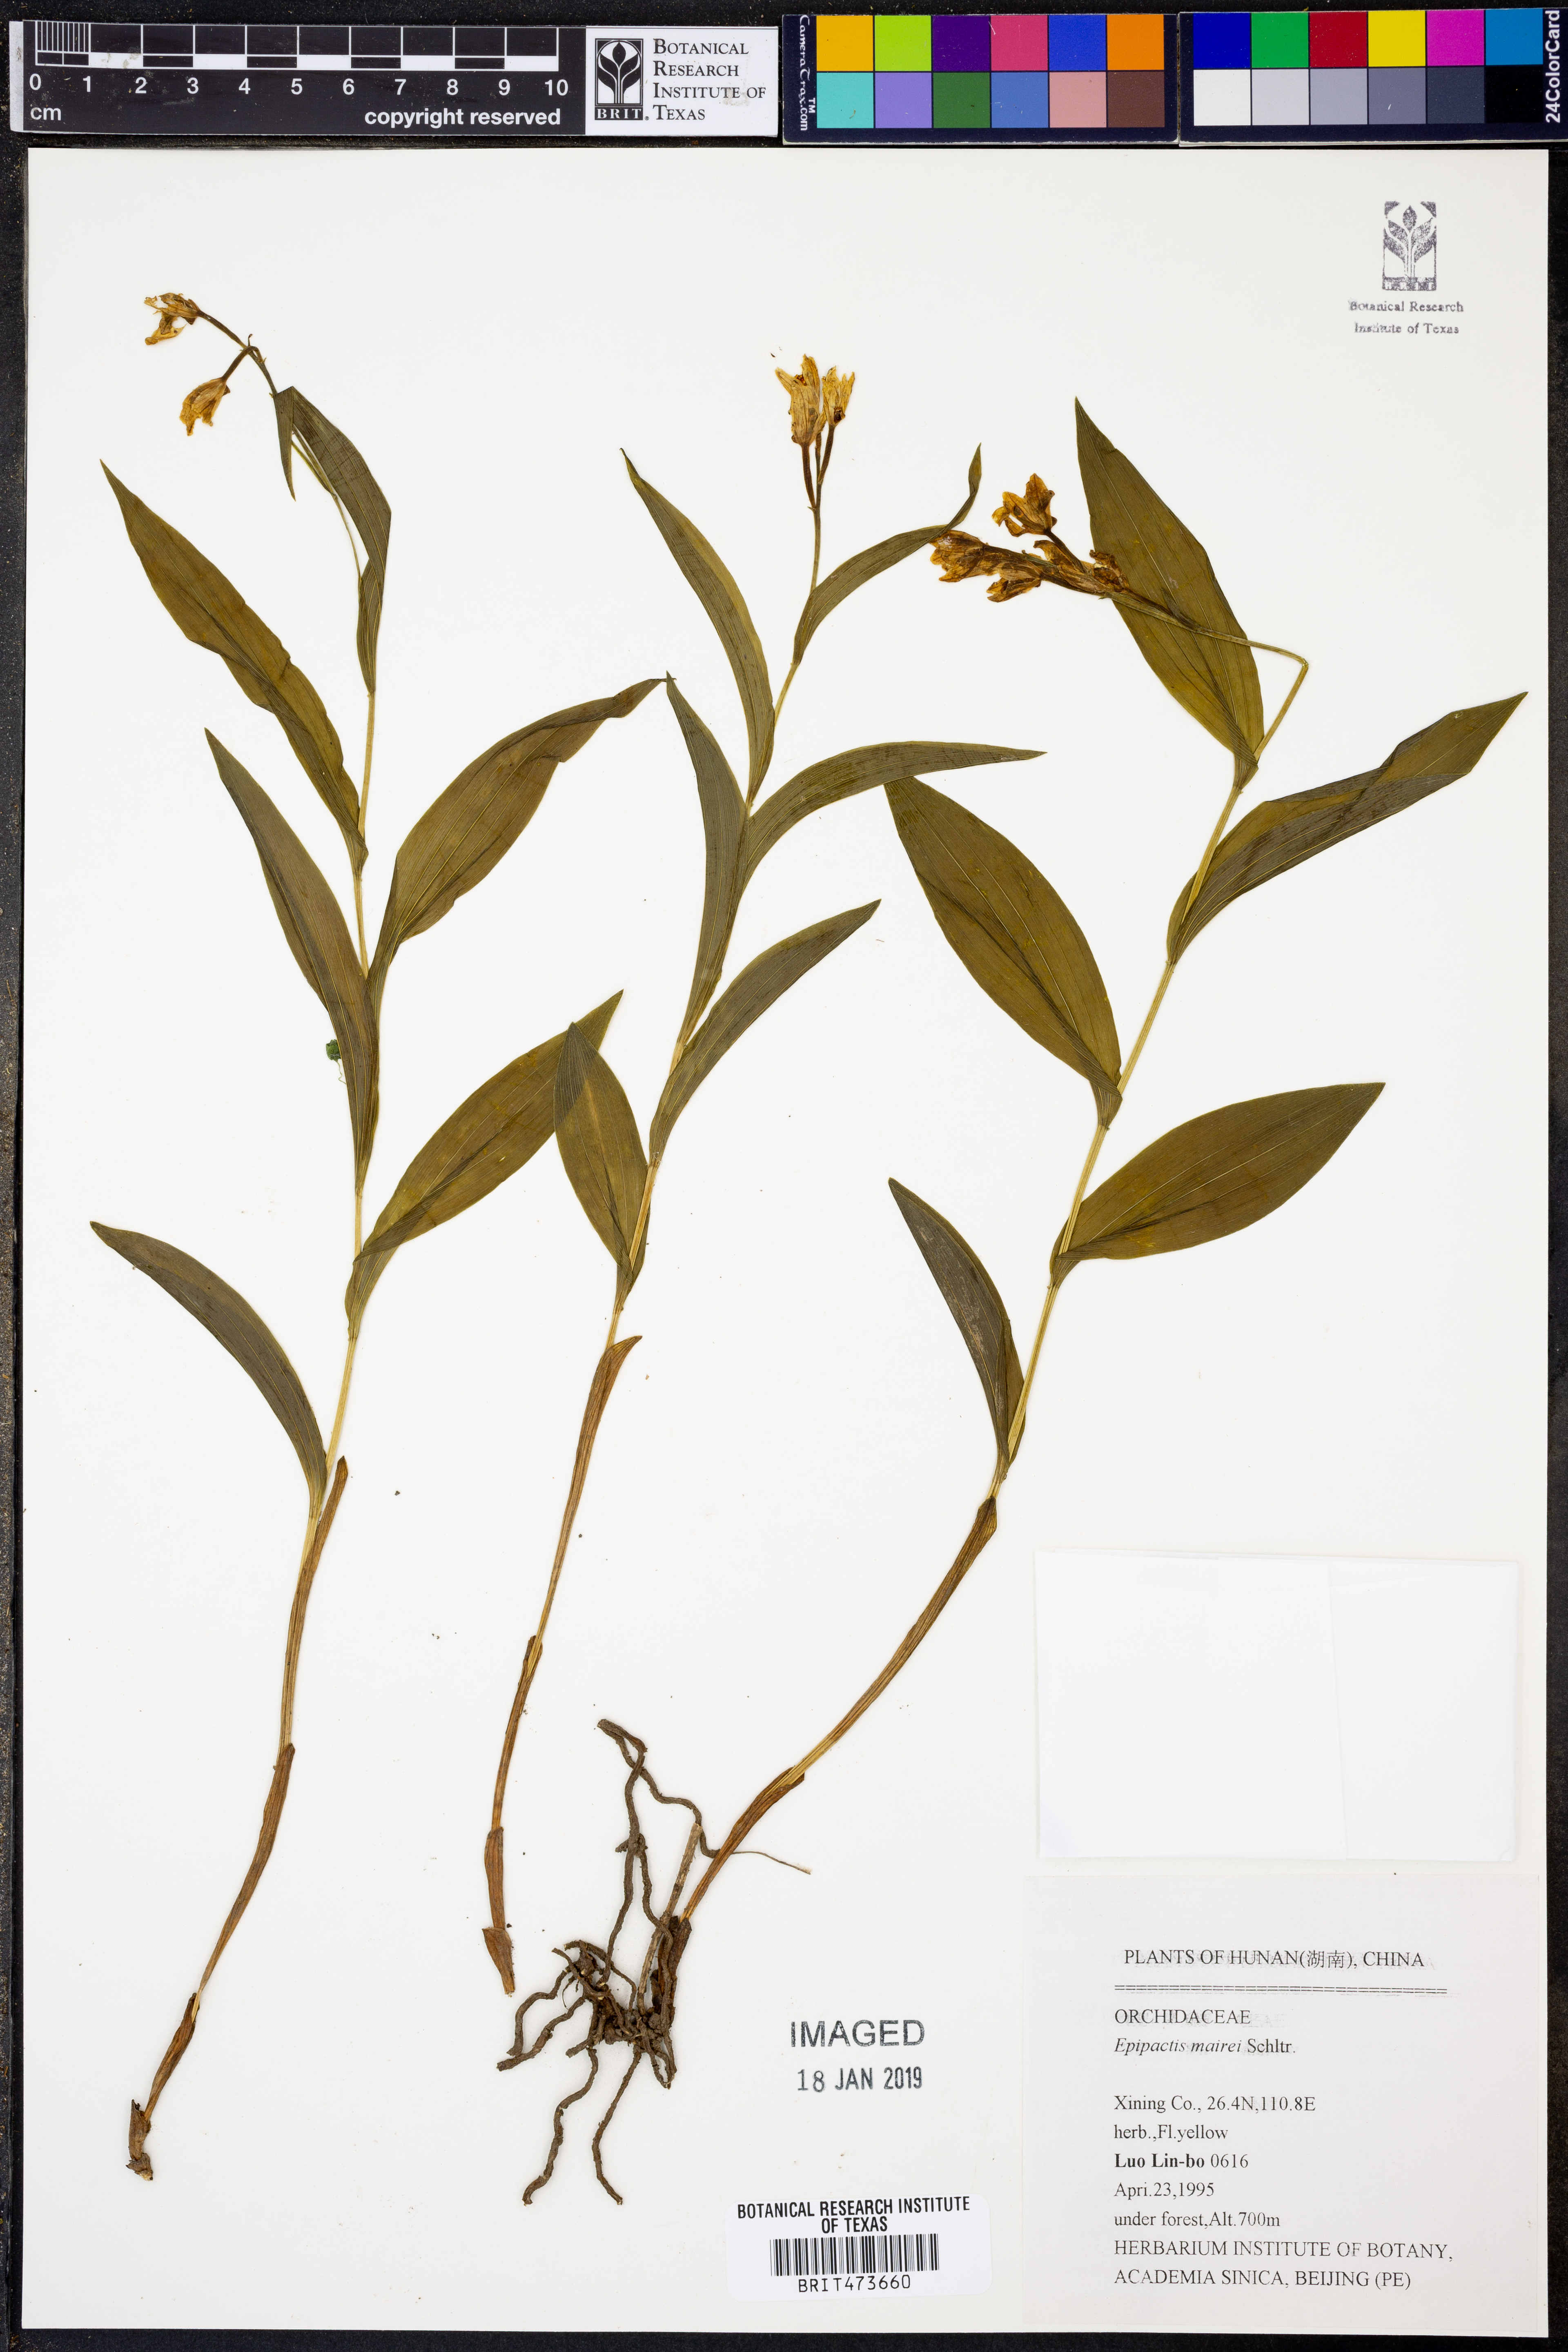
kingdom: Plantae
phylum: Tracheophyta
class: Liliopsida
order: Asparagales
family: Orchidaceae
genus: Epipactis
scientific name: Epipactis mairei
